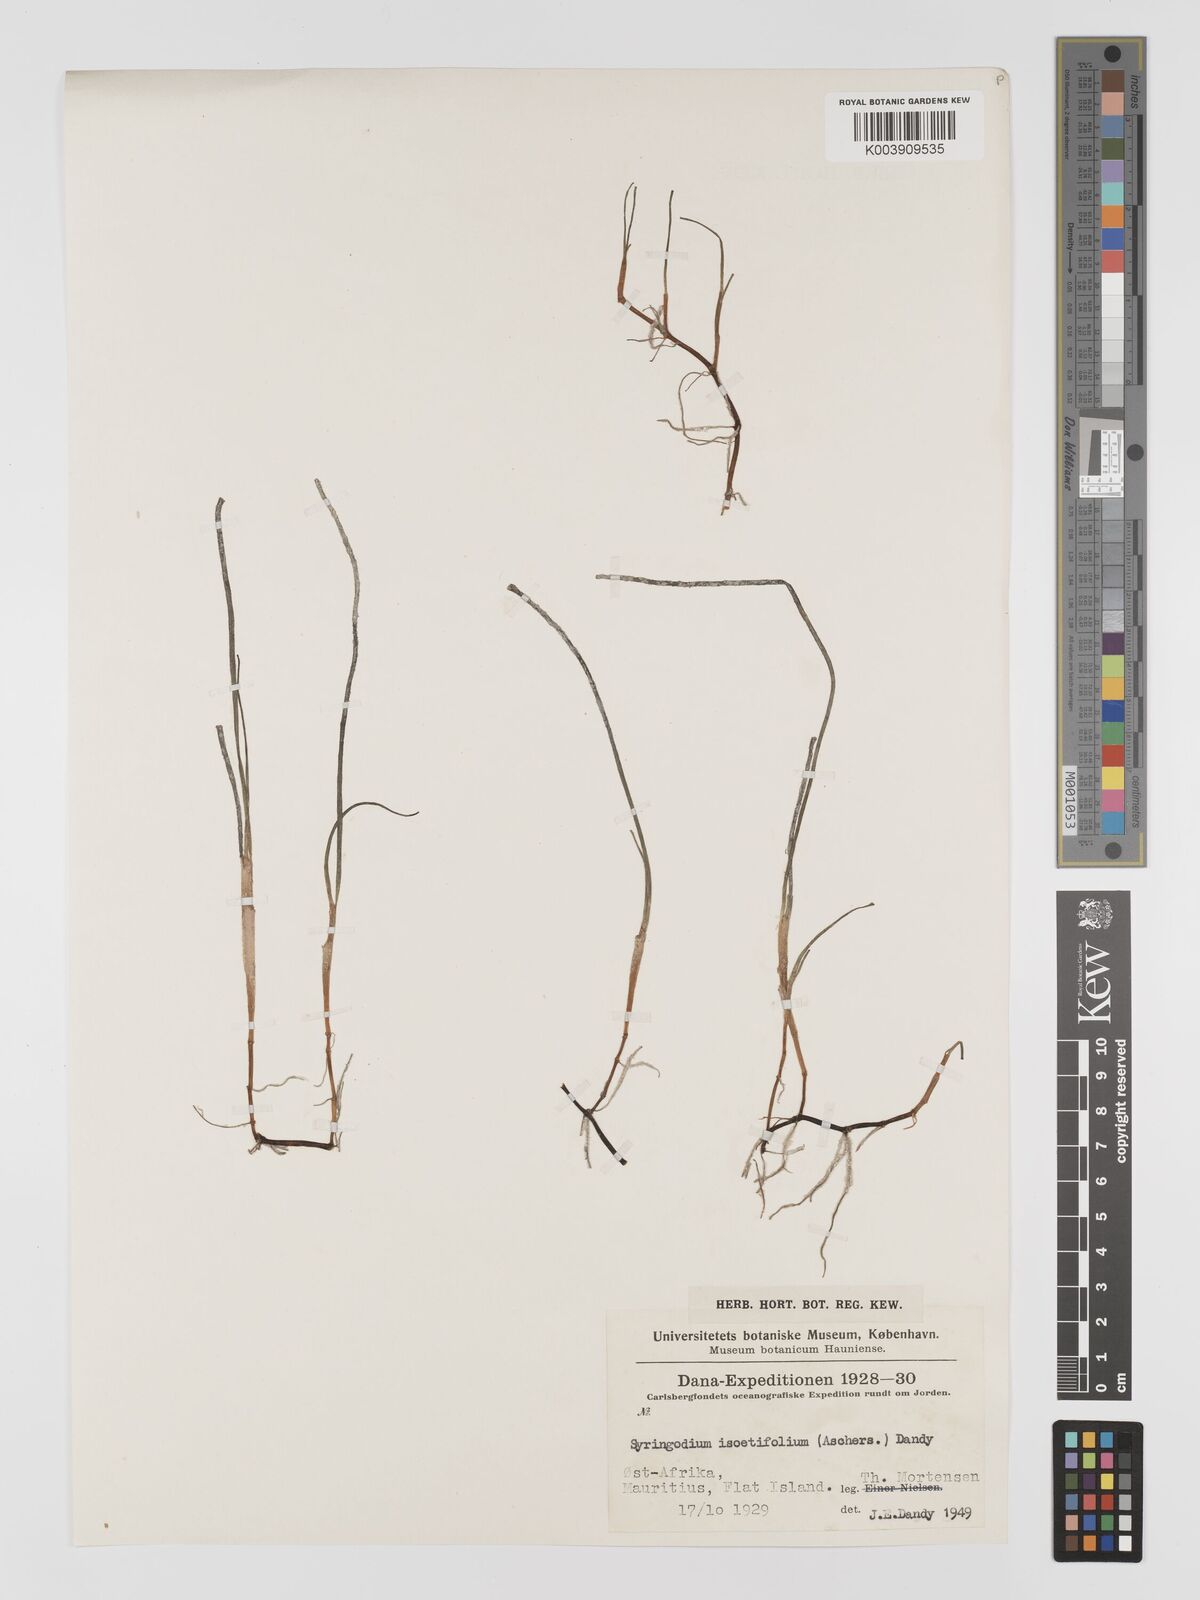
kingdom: Plantae
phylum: Tracheophyta
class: Liliopsida
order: Alismatales
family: Cymodoceaceae
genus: Syringodium
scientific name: Syringodium isoetifolium
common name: Species code: si
